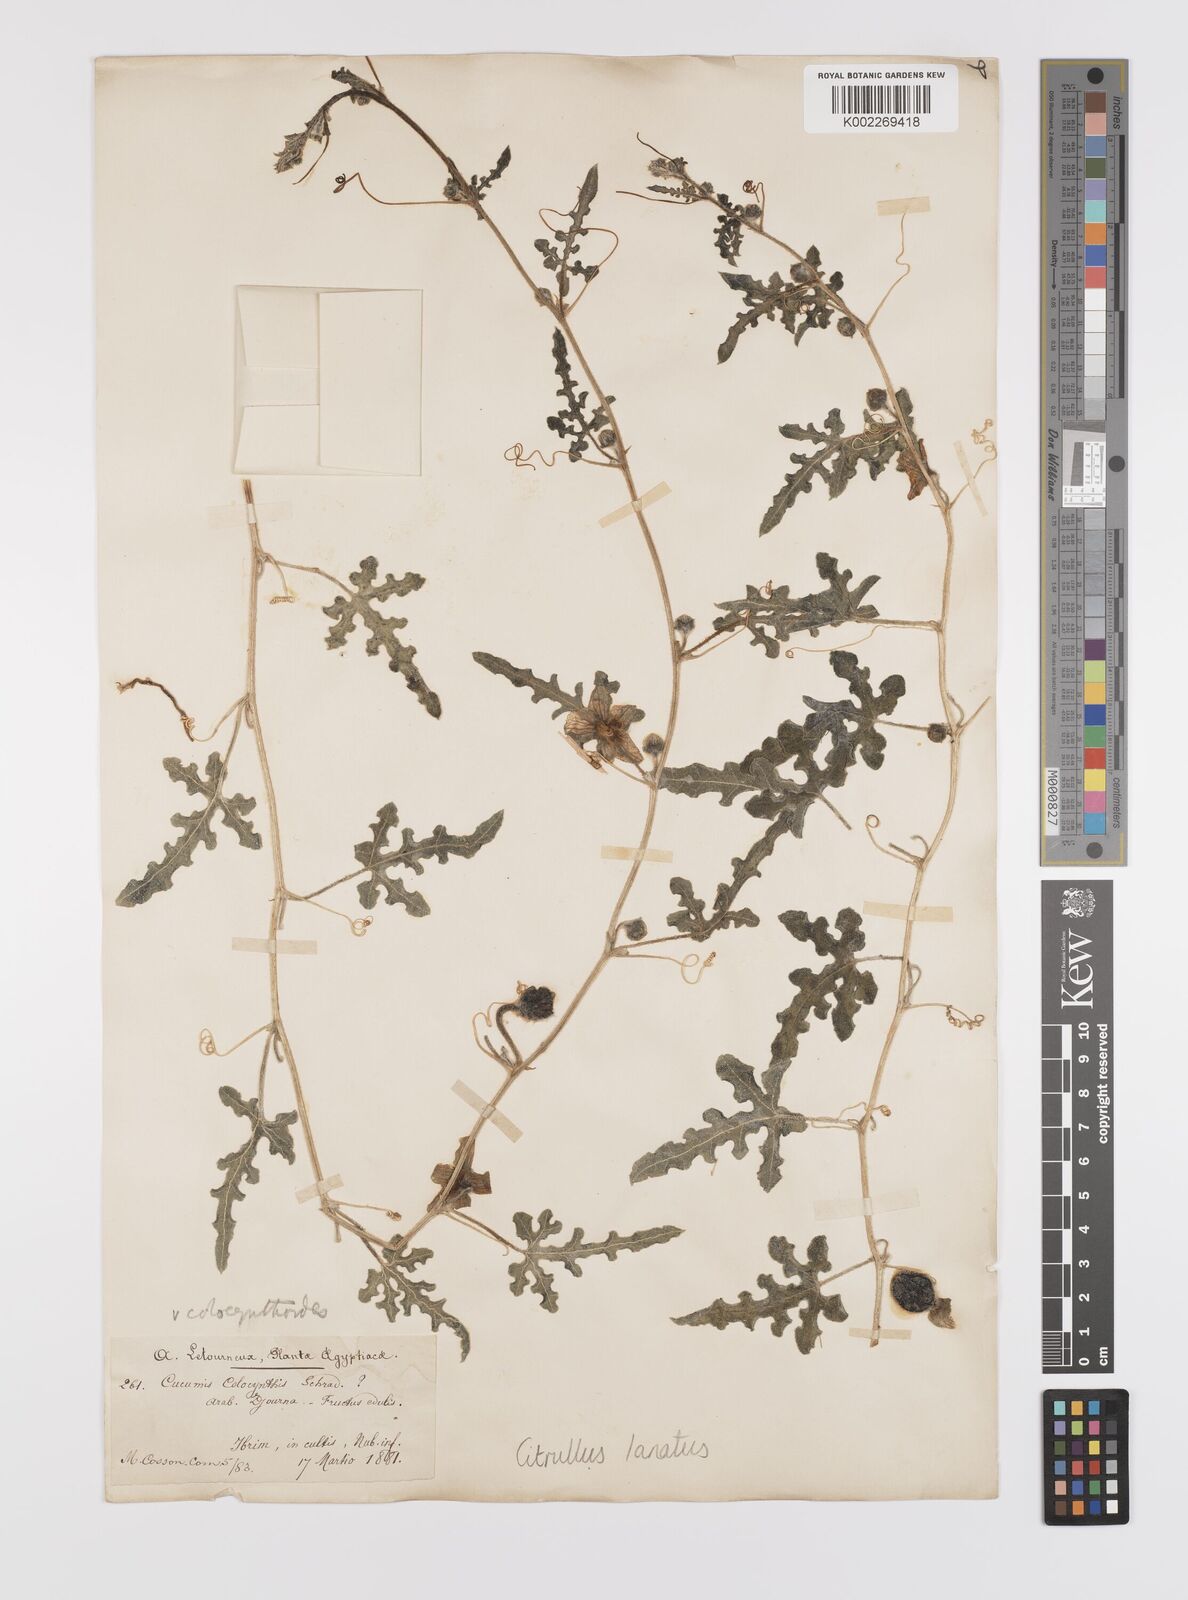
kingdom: Plantae
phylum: Tracheophyta
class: Magnoliopsida
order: Cucurbitales
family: Cucurbitaceae
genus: Citrullus
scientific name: Citrullus lanatus
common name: Watermelon
